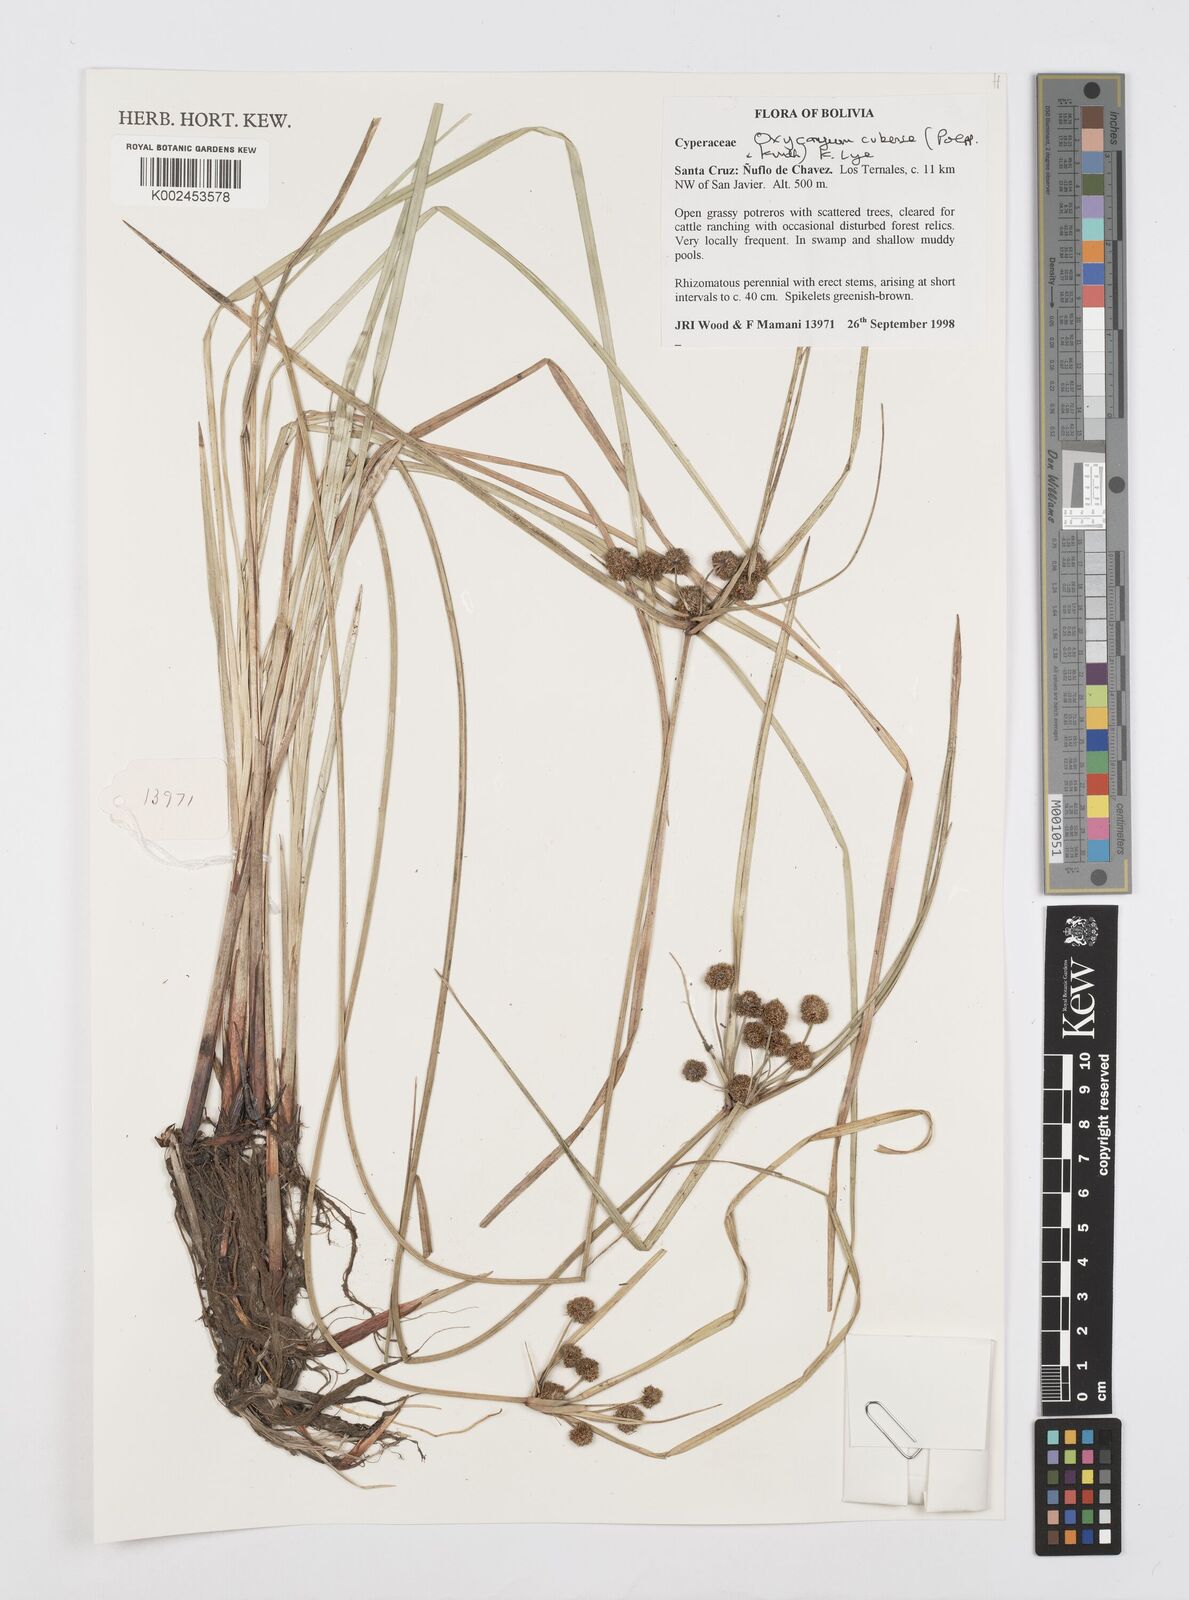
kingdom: Plantae
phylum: Tracheophyta
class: Liliopsida
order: Poales
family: Cyperaceae
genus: Cyperus
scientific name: Cyperus elegans
